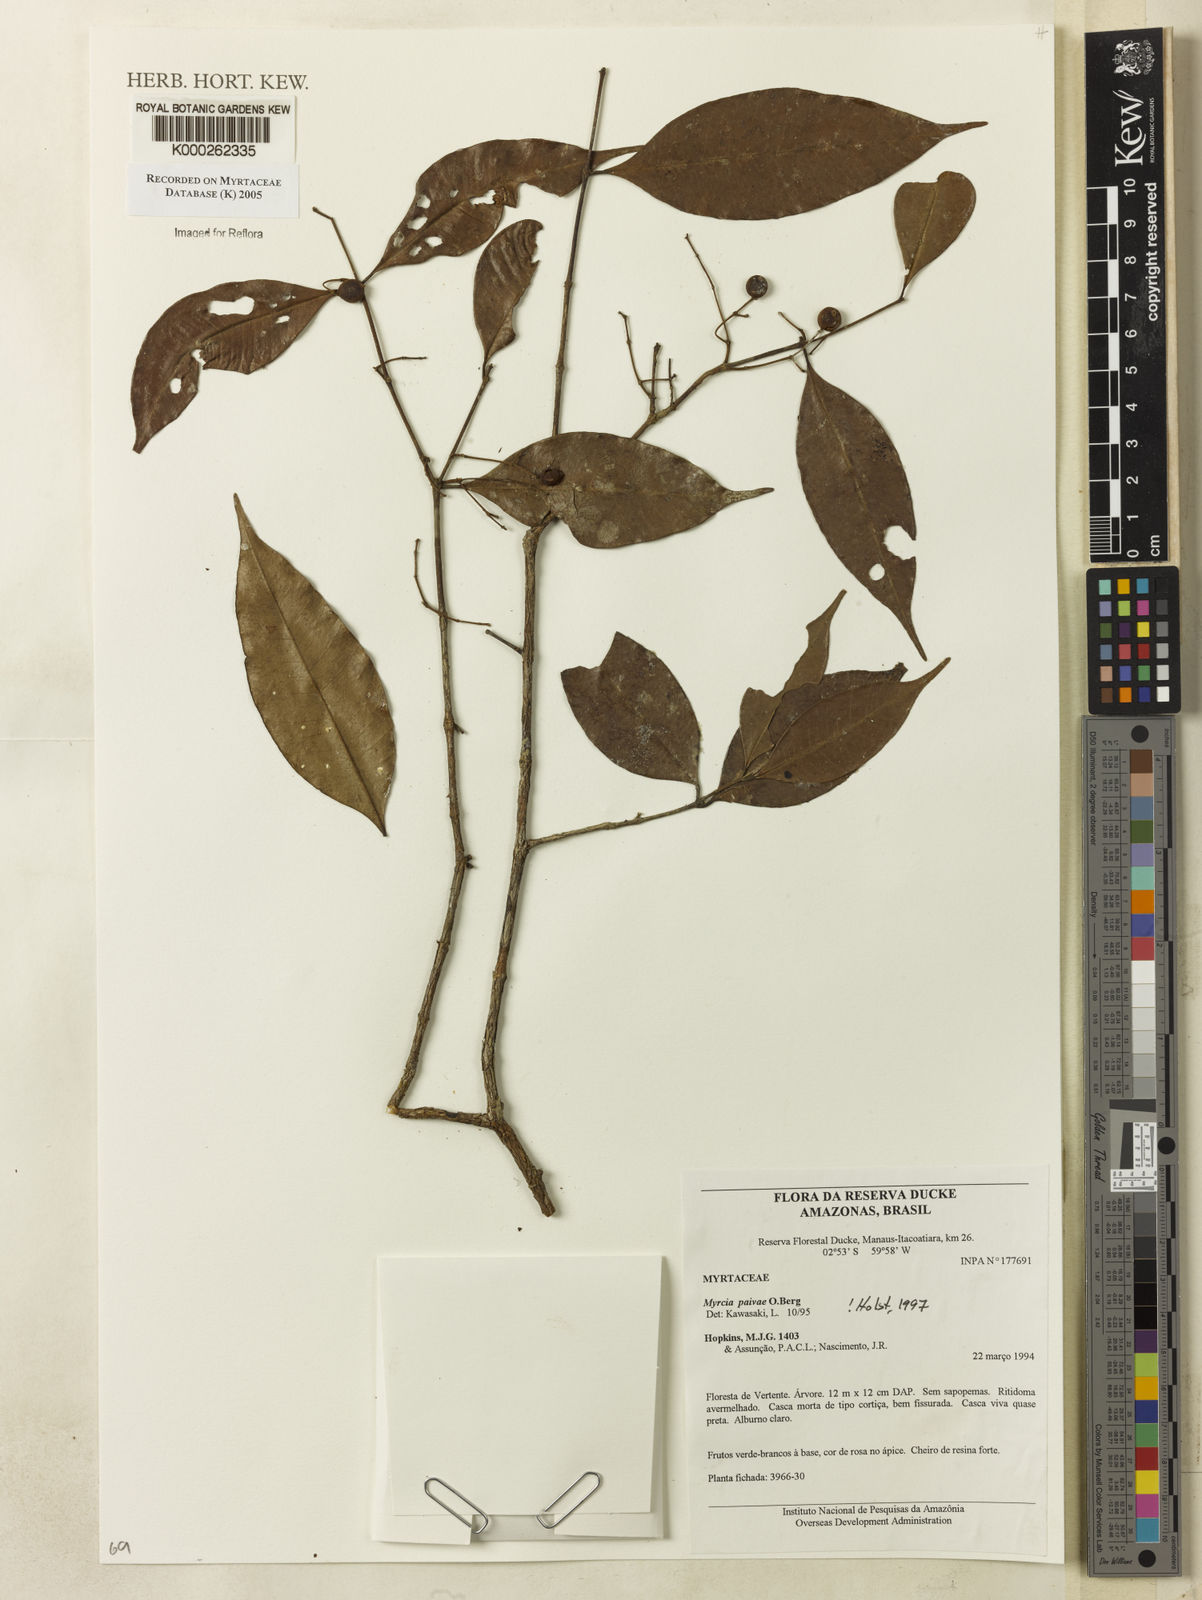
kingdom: Plantae
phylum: Tracheophyta
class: Magnoliopsida
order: Myrtales
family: Myrtaceae
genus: Myrcia
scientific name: Myrcia paivae
